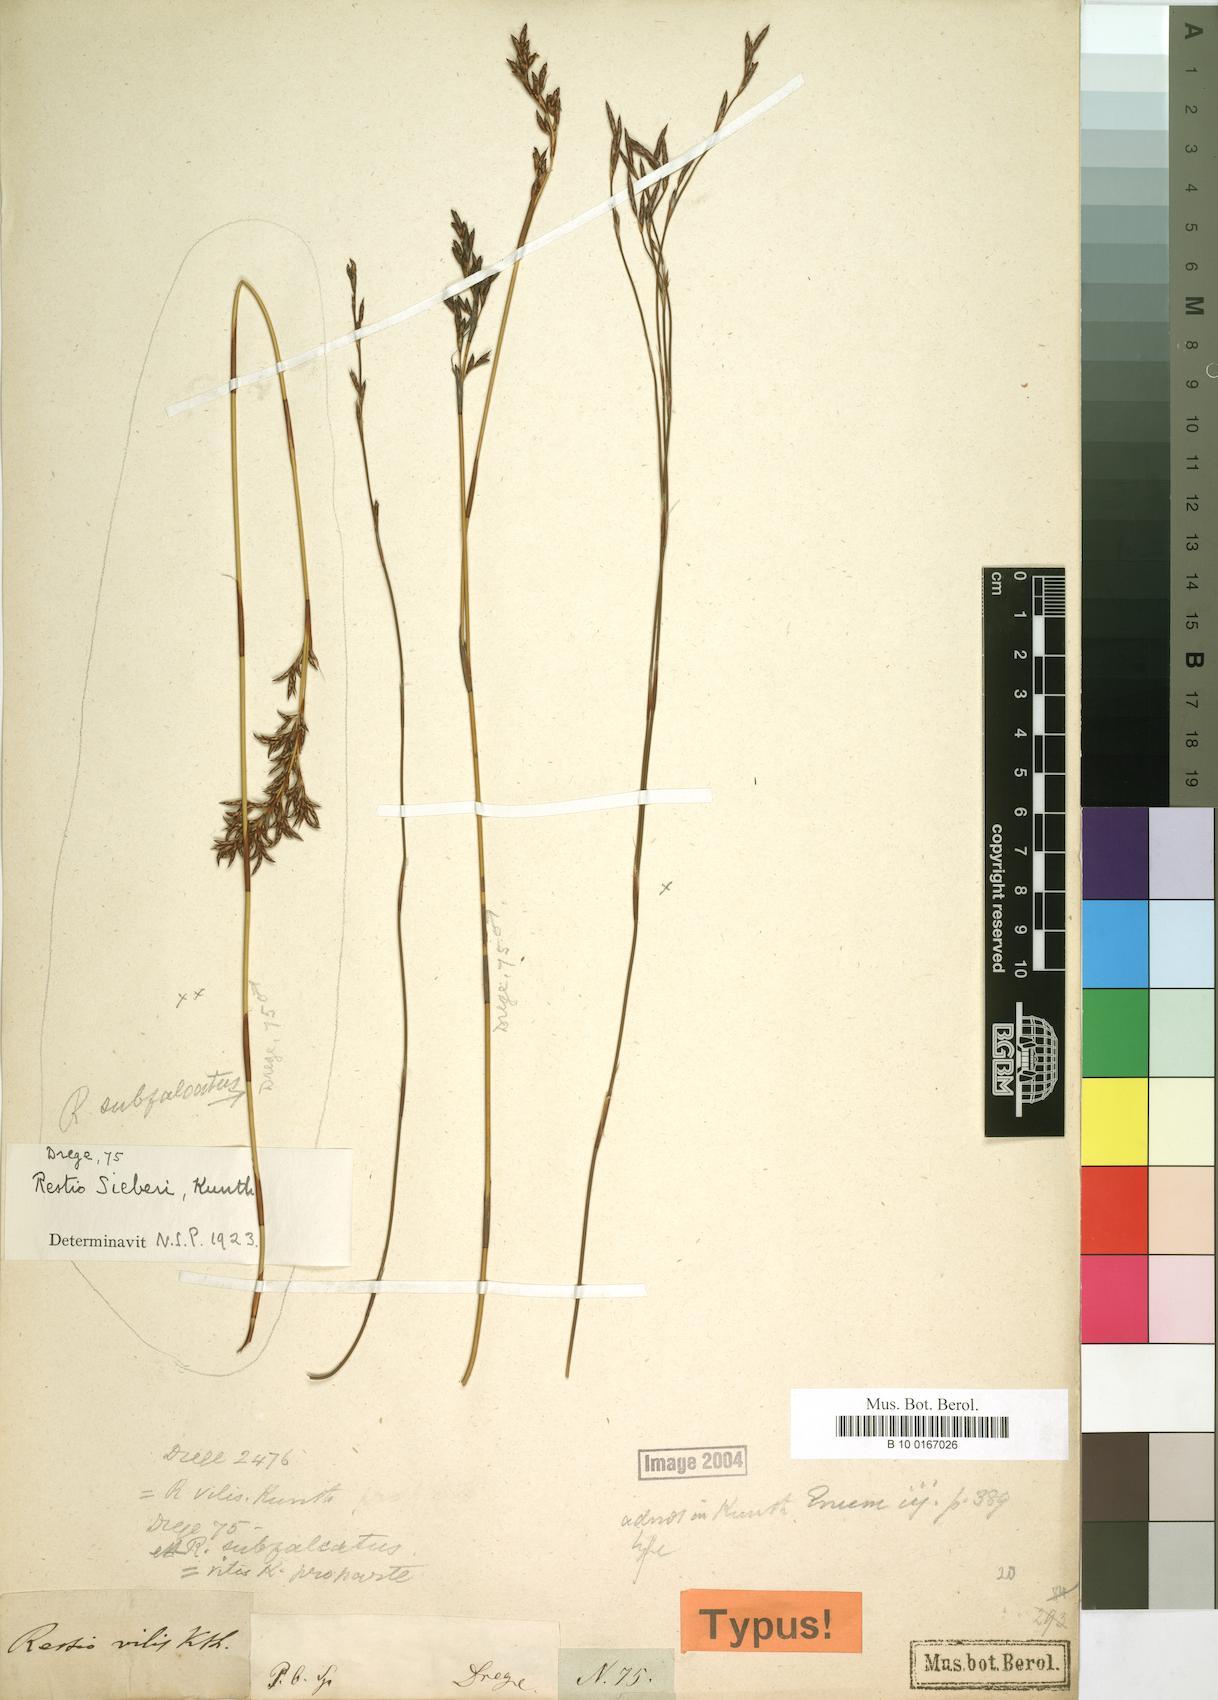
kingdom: Plantae
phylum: Tracheophyta
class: Liliopsida
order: Poales
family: Restionaceae
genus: Restio
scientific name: Restio sieberi
